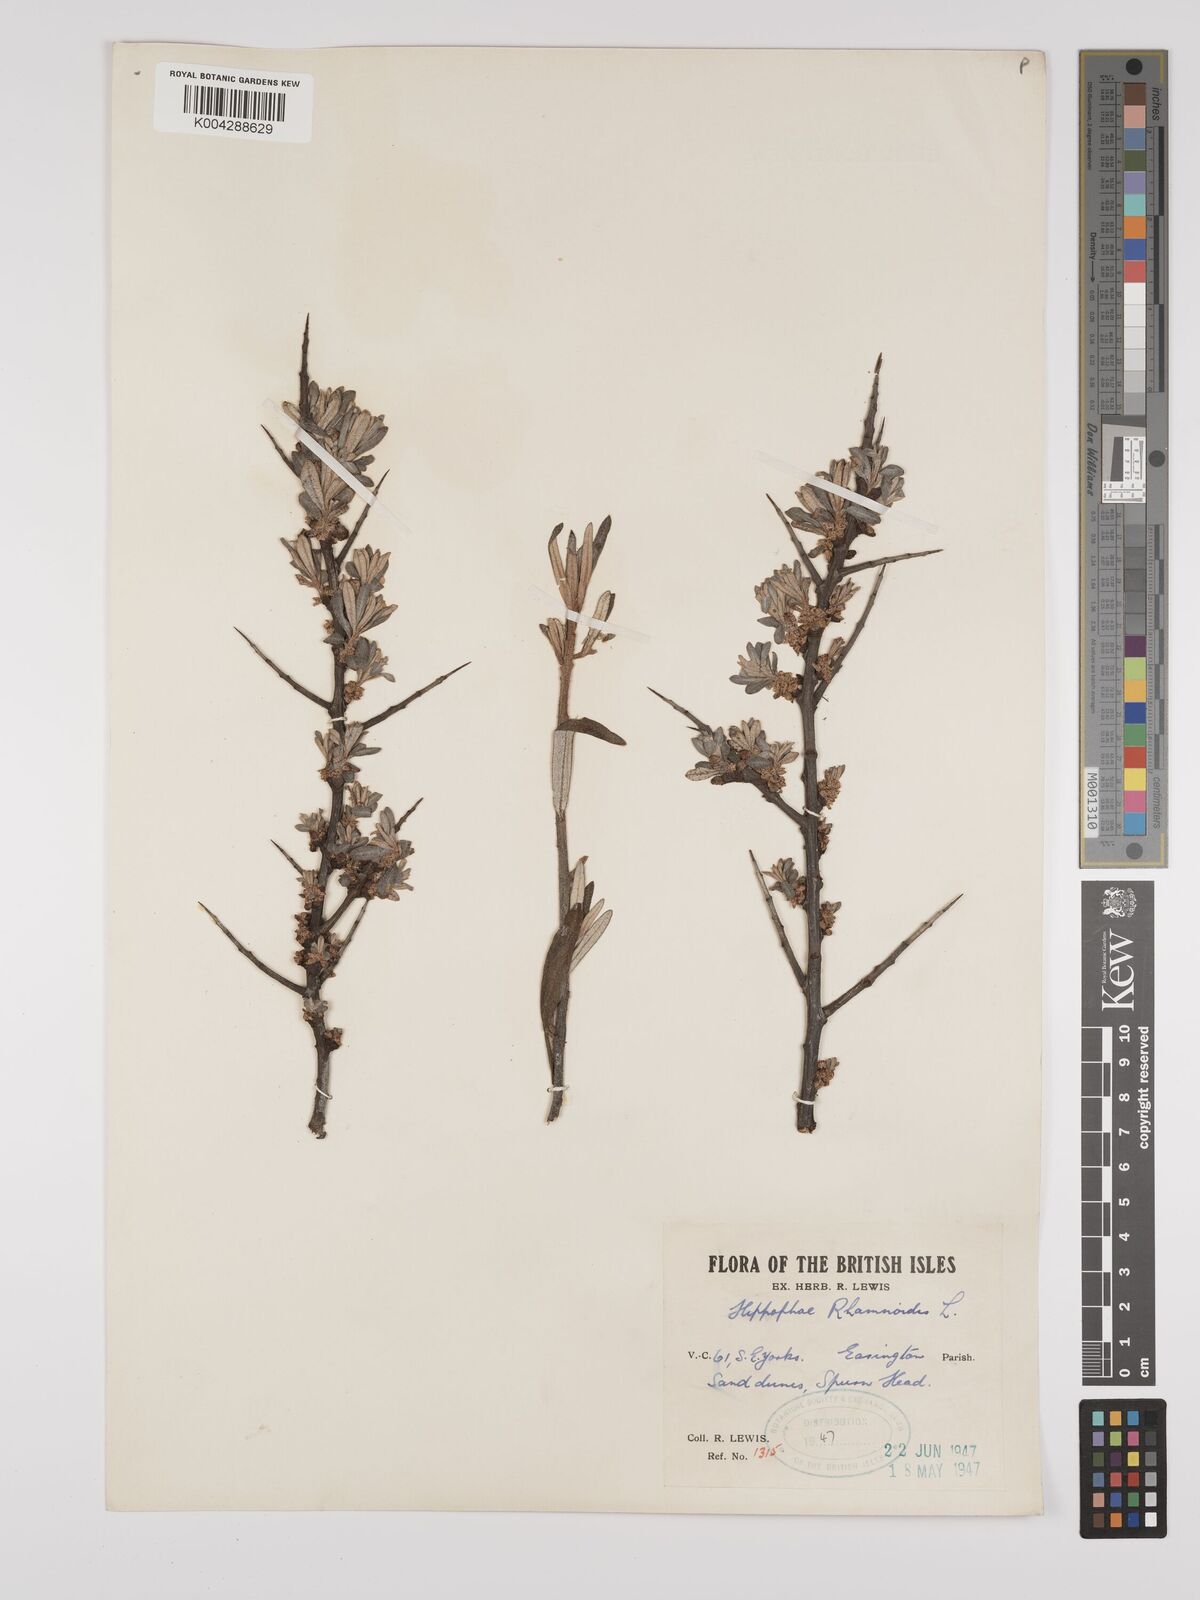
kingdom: Plantae
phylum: Tracheophyta
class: Magnoliopsida
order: Rosales
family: Elaeagnaceae
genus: Hippophae
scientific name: Hippophae rhamnoides
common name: Sea-buckthorn
